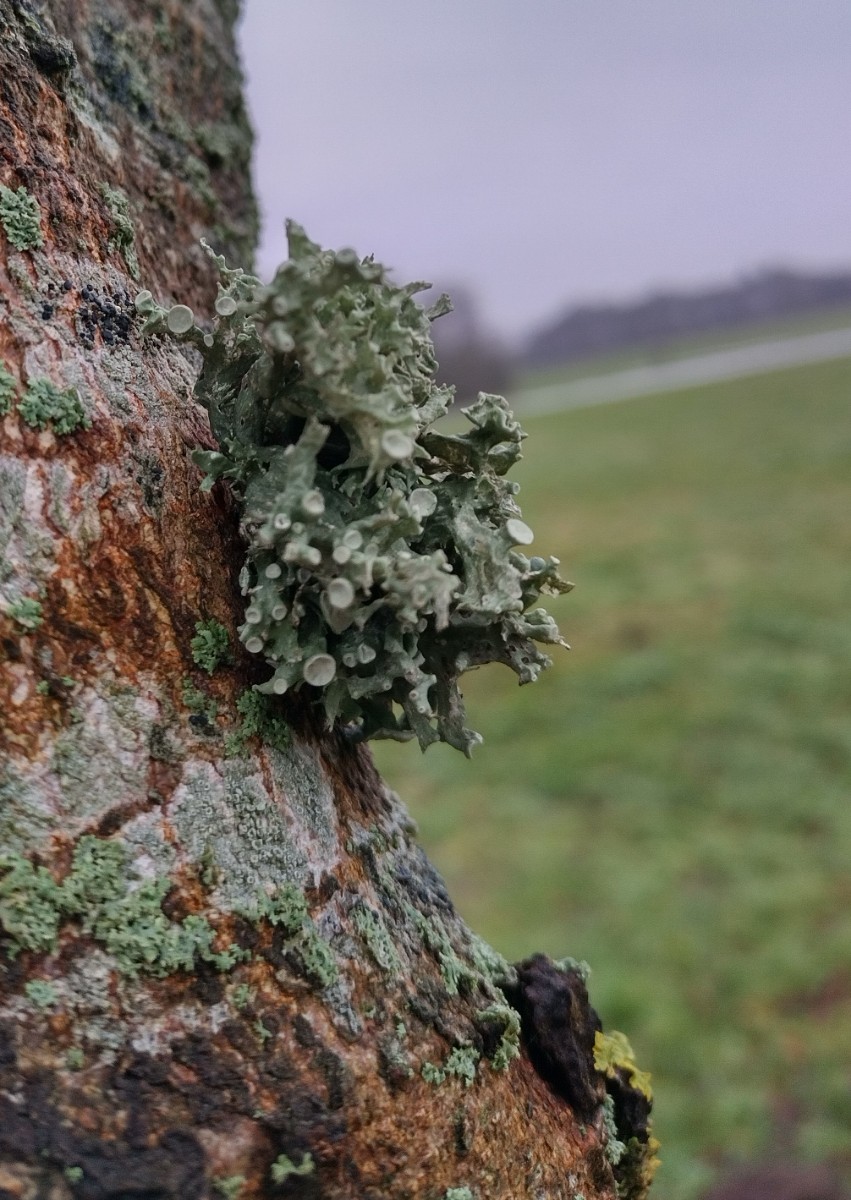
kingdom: Fungi
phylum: Ascomycota
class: Lecanoromycetes
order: Lecanorales
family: Ramalinaceae
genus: Ramalina
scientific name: Ramalina fastigiata
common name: tue-grenlav
